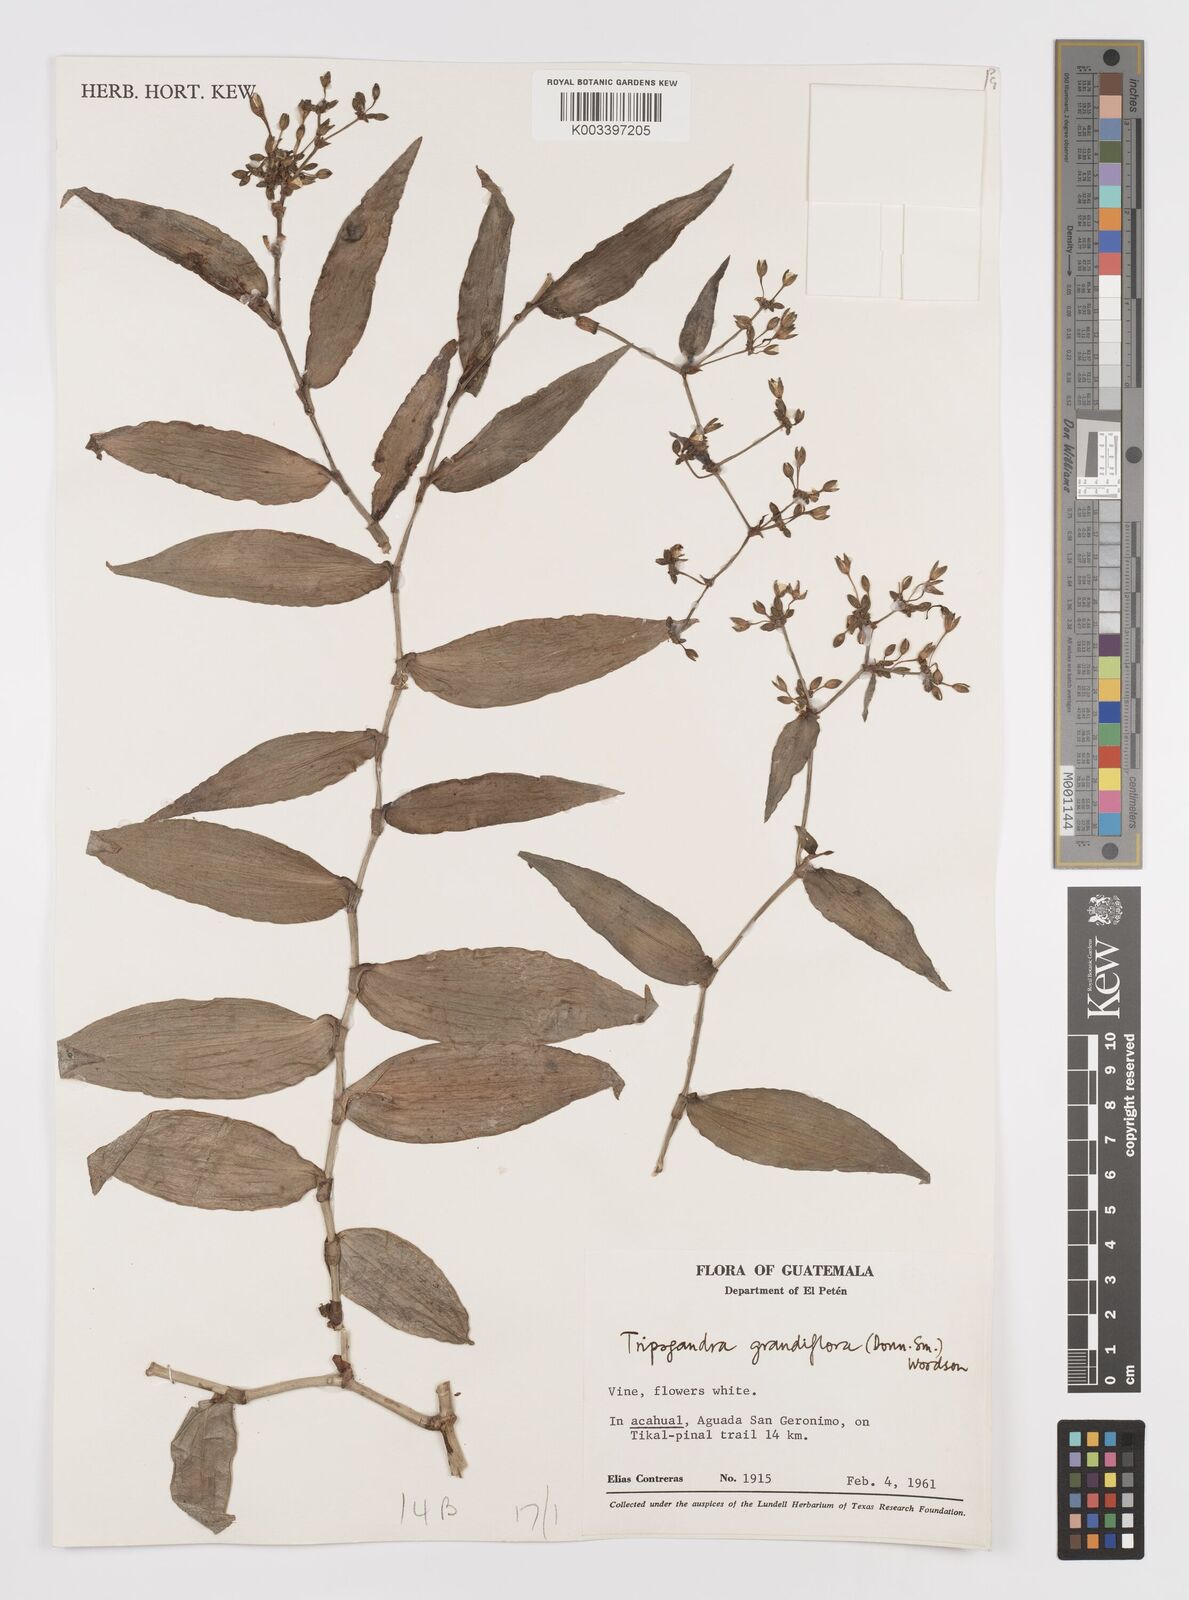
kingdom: Plantae
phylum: Tracheophyta
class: Liliopsida
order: Commelinales
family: Commelinaceae
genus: Callisia
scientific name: Callisia grandiflora
